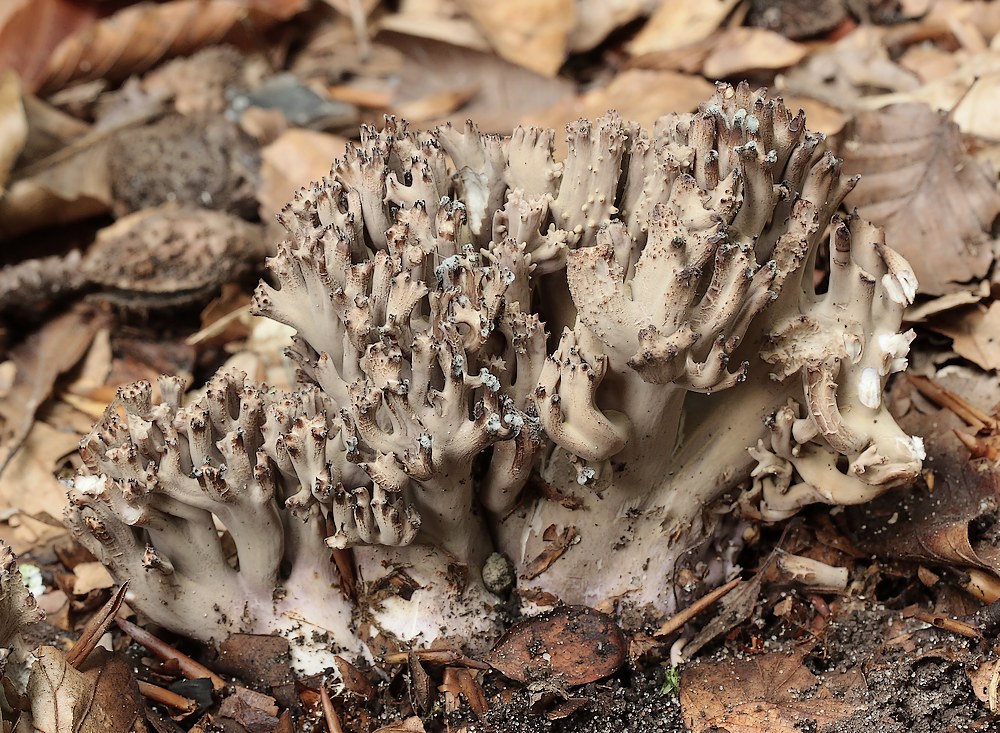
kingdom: Fungi
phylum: Basidiomycota
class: Agaricomycetes
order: Gomphales
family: Gomphaceae
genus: Ramaria
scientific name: Ramaria fumigata
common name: violet koralsvamp
